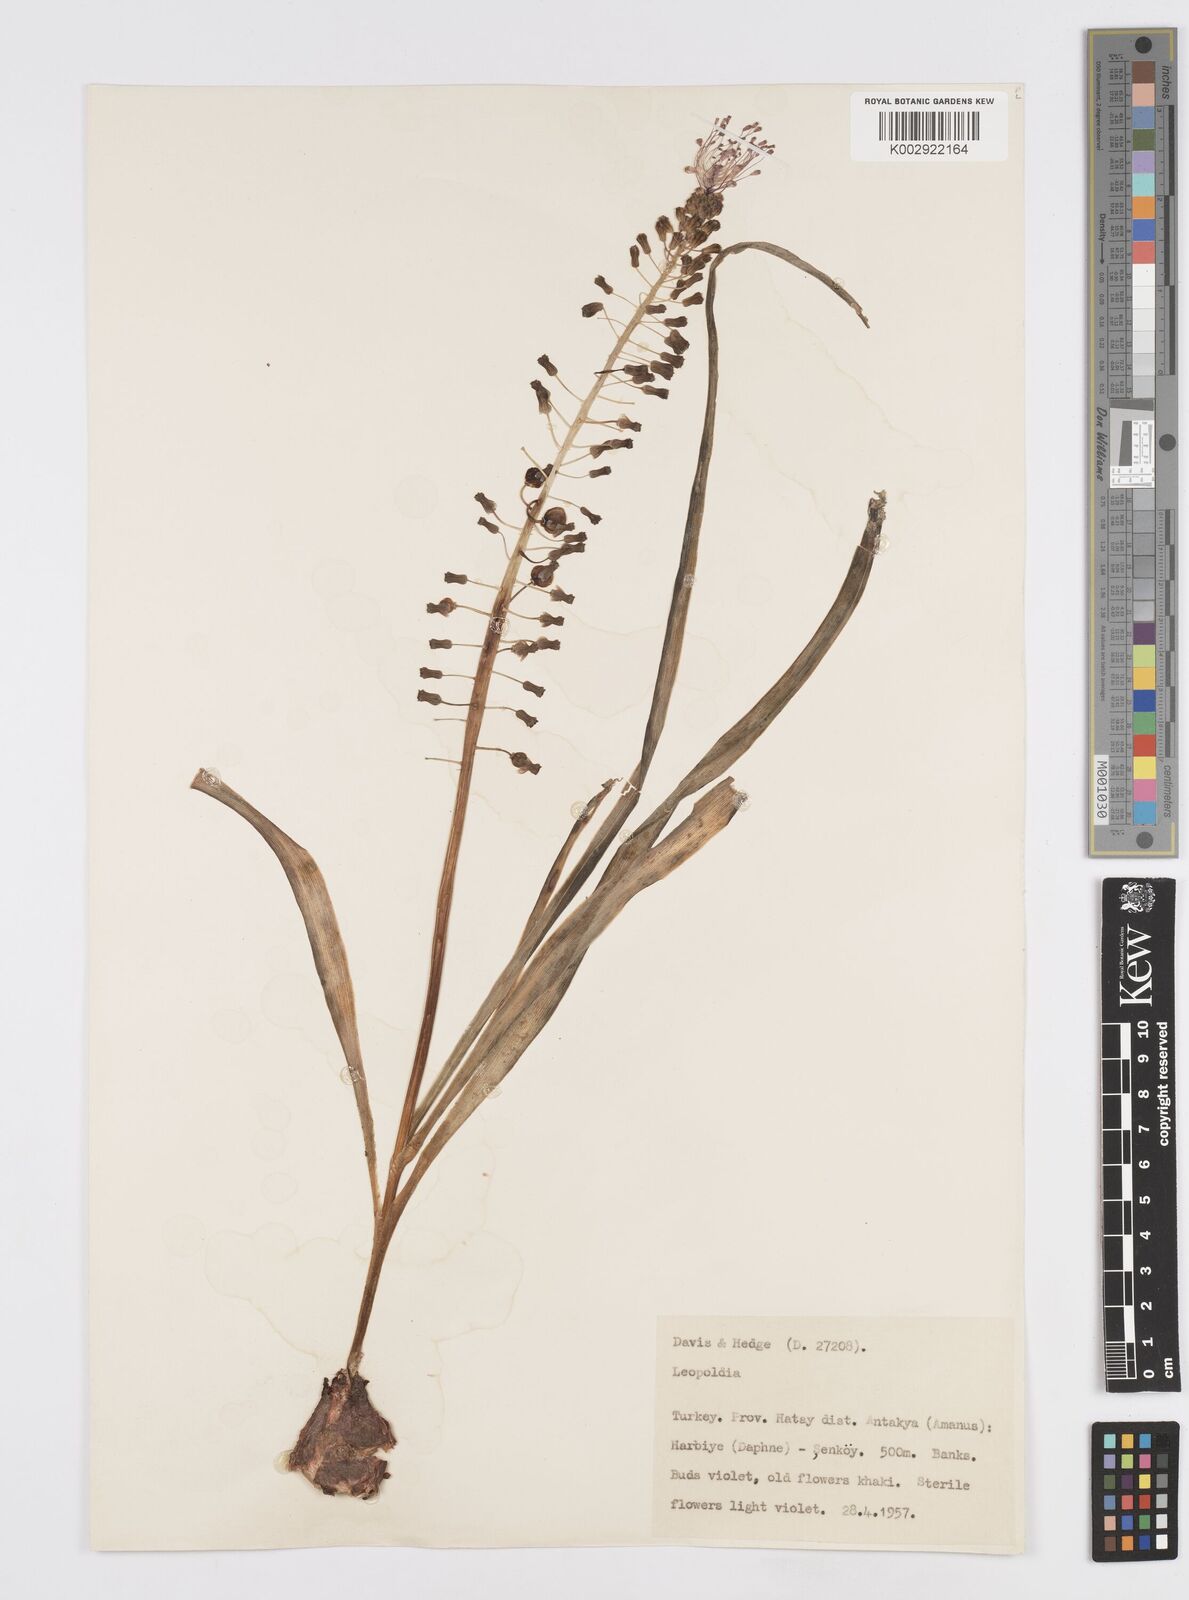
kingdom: Plantae
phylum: Tracheophyta
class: Liliopsida
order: Asparagales
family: Asparagaceae
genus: Muscari
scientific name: Muscari comosum
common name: Tassel hyacinth
